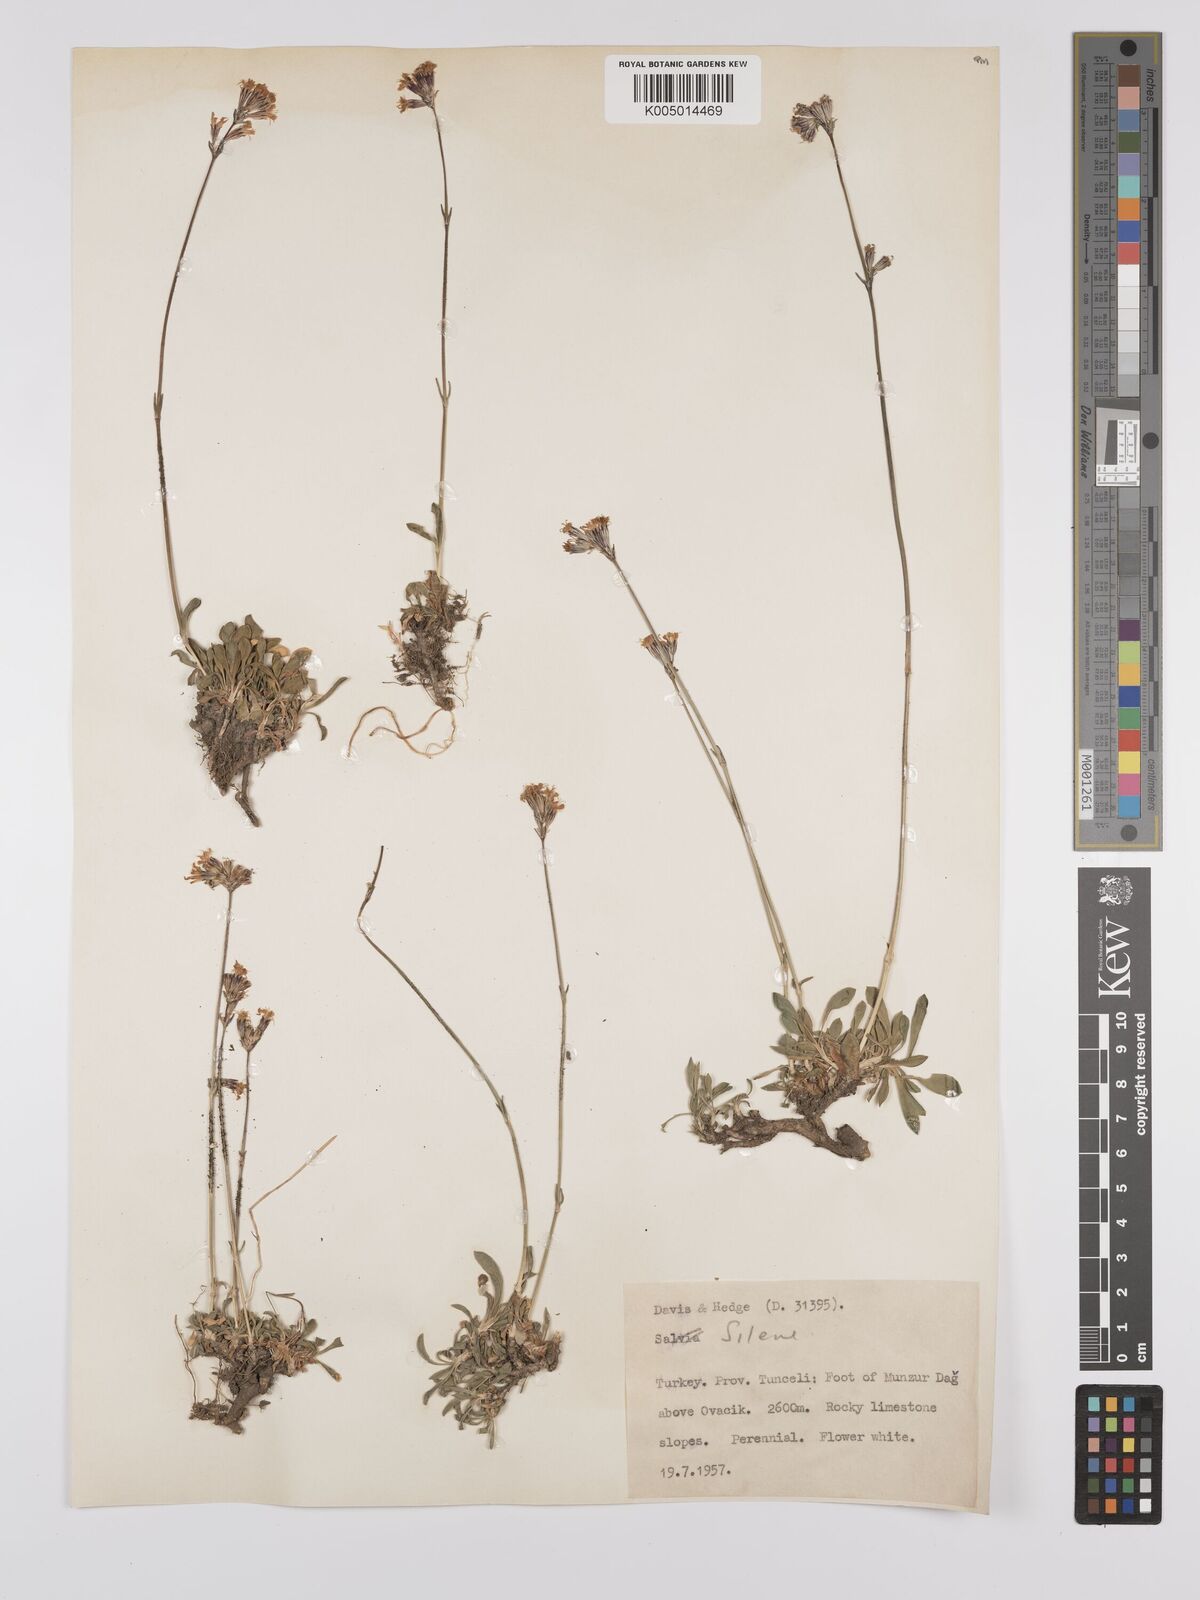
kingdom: Plantae
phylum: Tracheophyta
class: Magnoliopsida
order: Caryophyllales
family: Caryophyllaceae
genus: Silene
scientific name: Silene
